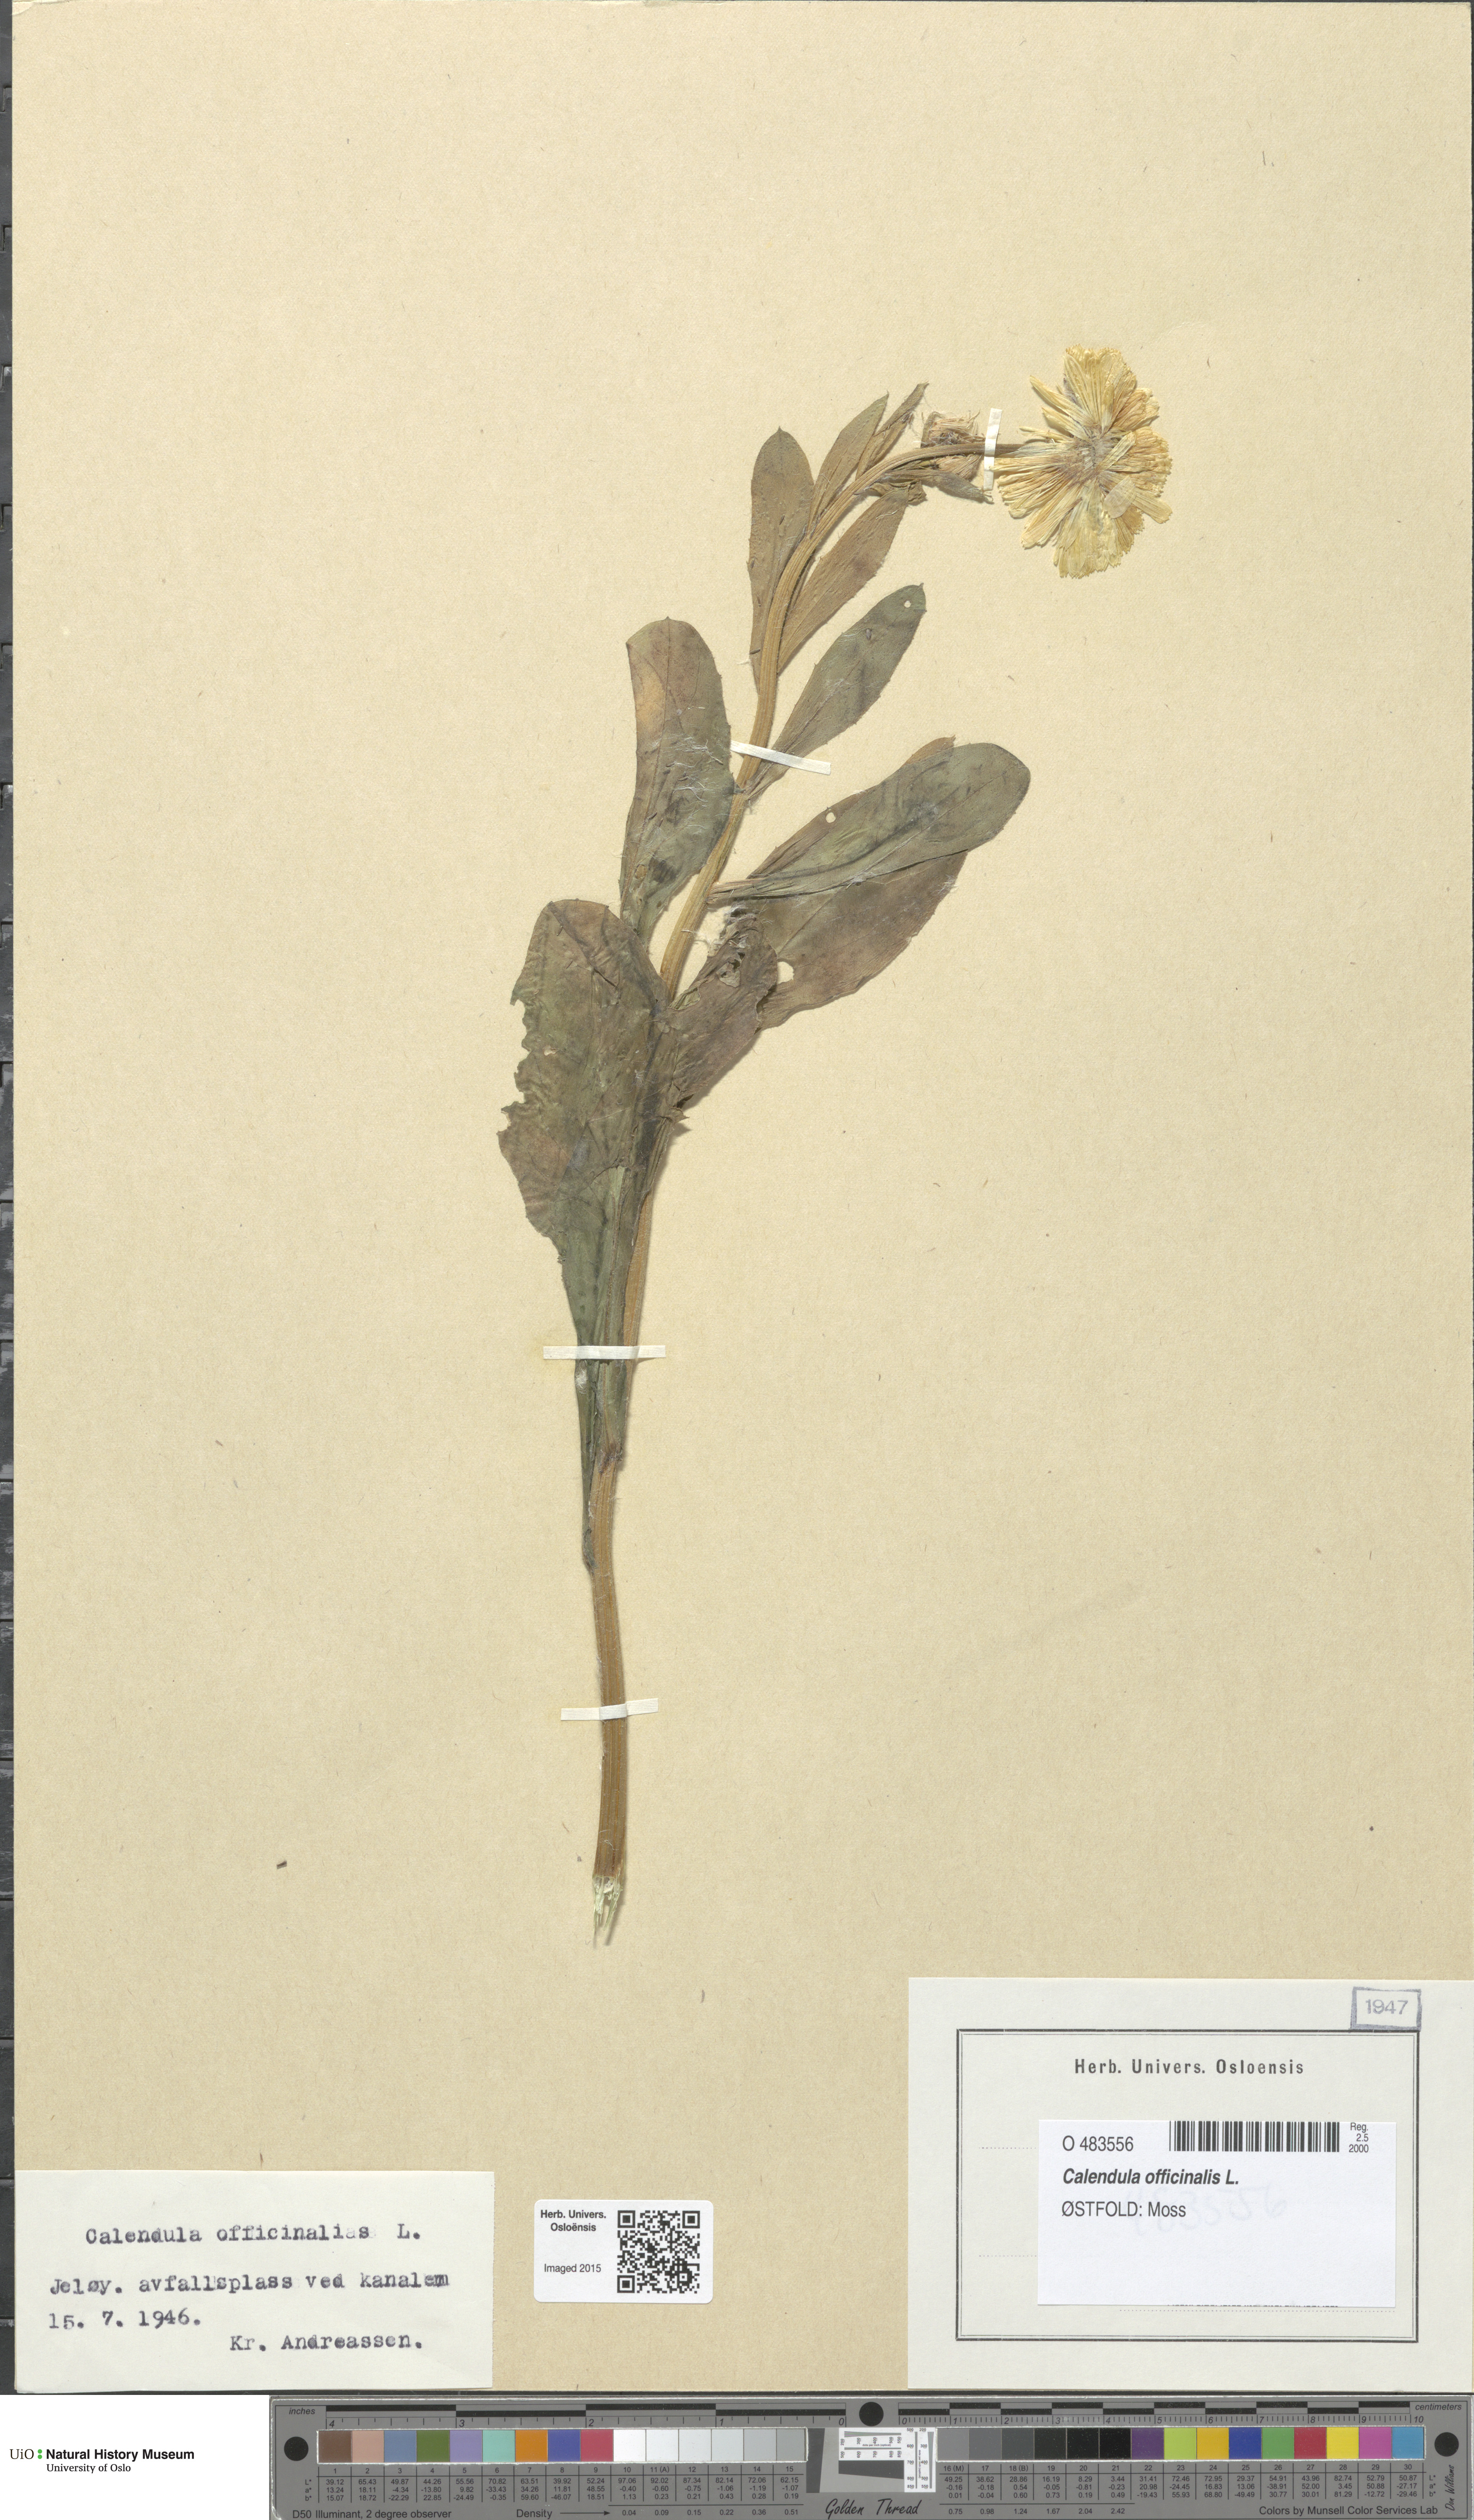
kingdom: Plantae
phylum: Tracheophyta
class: Magnoliopsida
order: Asterales
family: Asteraceae
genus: Calendula
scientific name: Calendula officinalis
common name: Pot marigold
